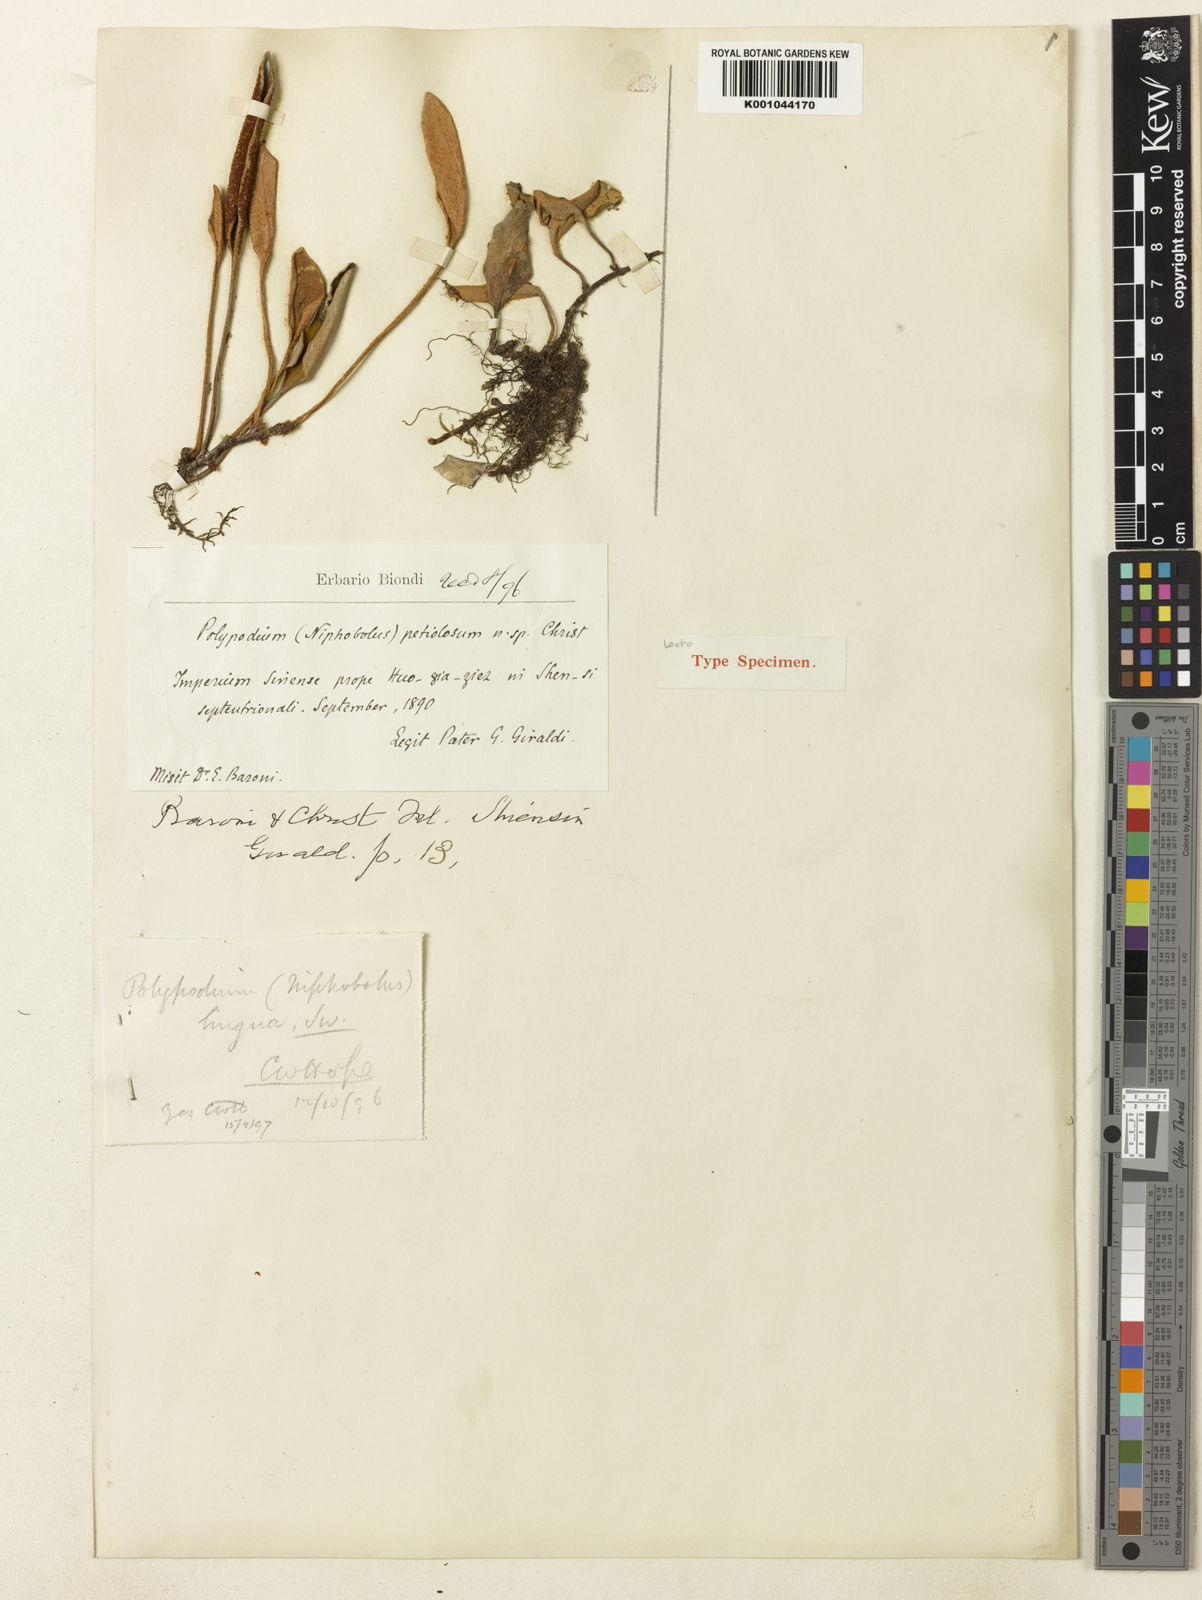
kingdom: Plantae
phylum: Tracheophyta
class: Polypodiopsida
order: Polypodiales
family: Polypodiaceae
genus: Pyrrosia
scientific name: Pyrrosia petiolosa
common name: Pyrrosia
